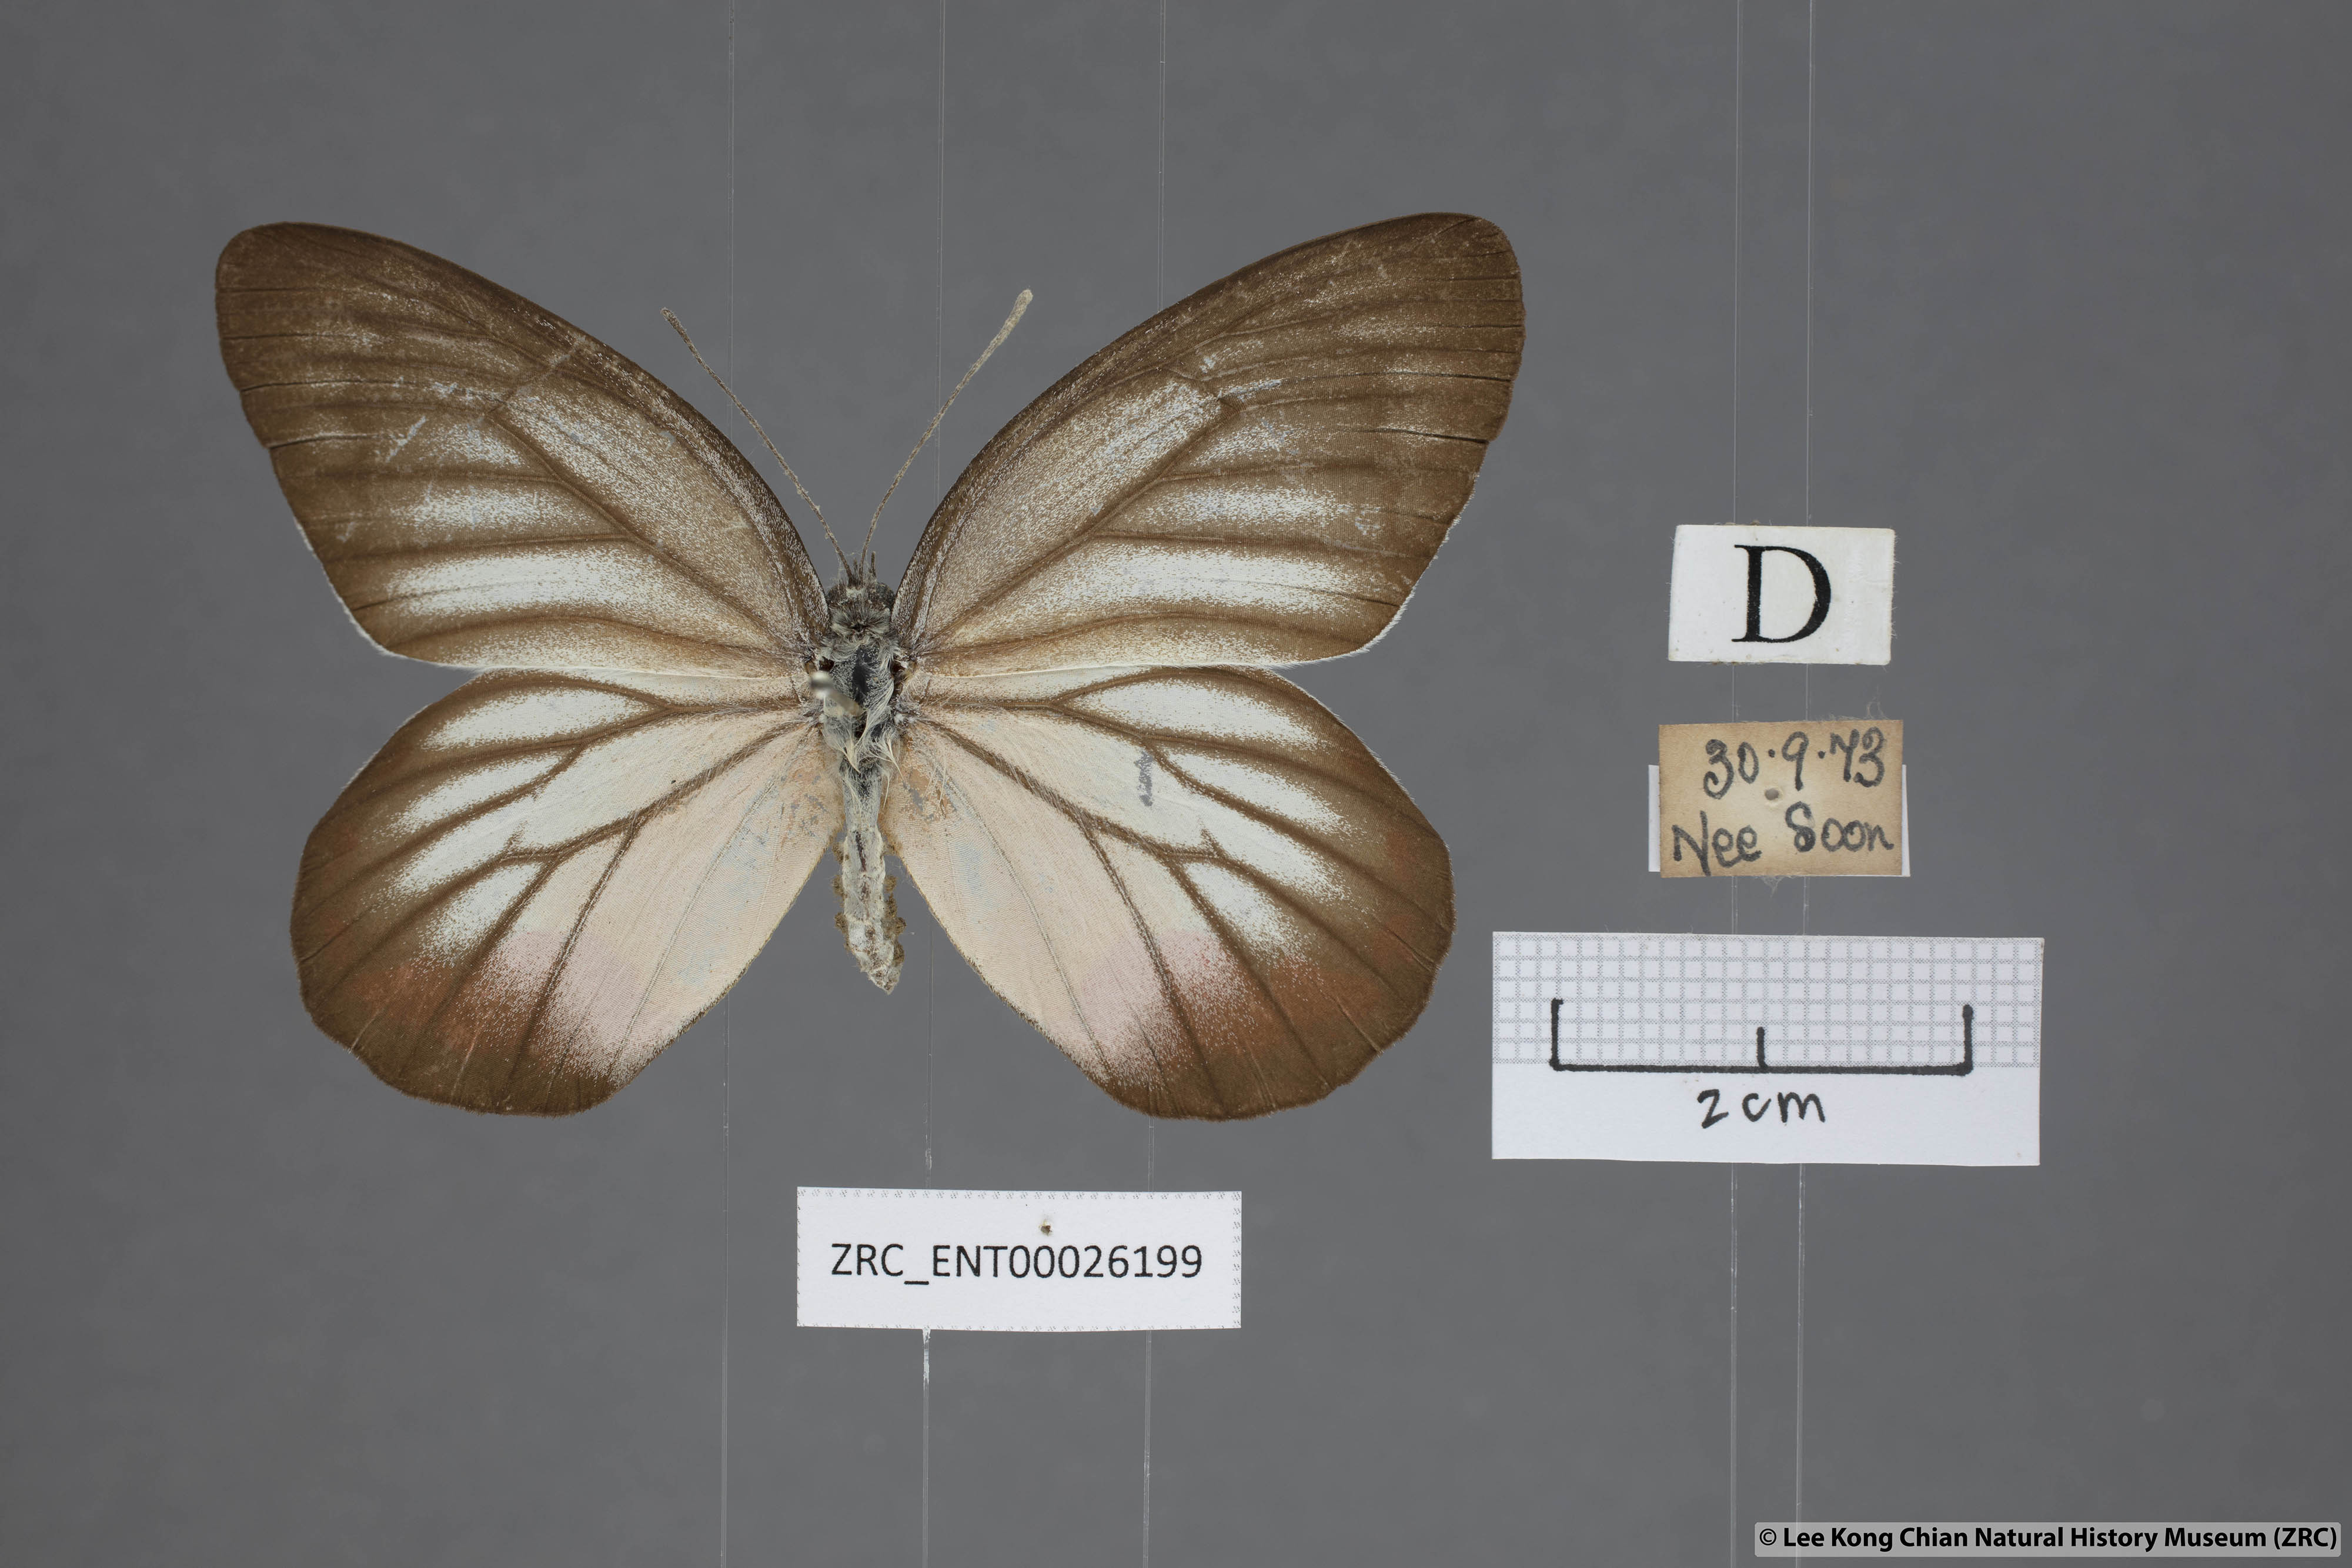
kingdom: Animalia
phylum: Arthropoda
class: Insecta
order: Lepidoptera
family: Pieridae
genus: Delias
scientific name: Delias hyparete
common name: Painted jezebel
